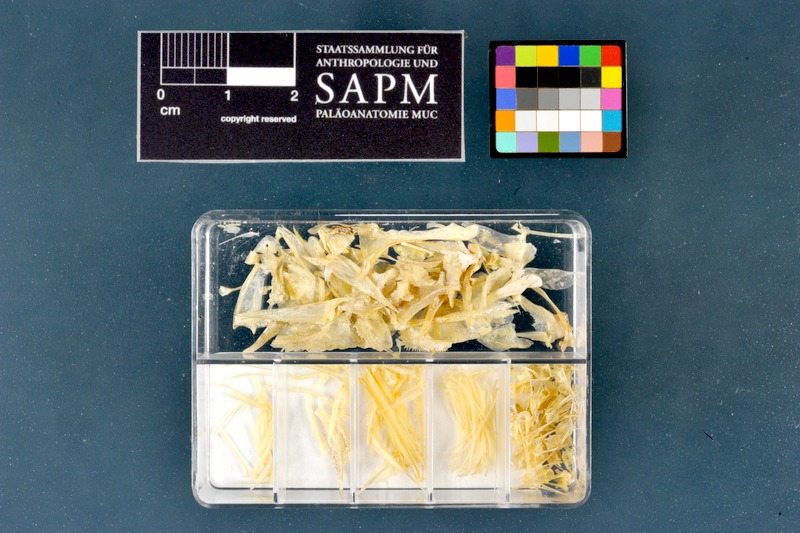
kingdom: Animalia
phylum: Chordata
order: Perciformes
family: Percidae
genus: Perca
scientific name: Perca fluviatilis
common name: Perch
